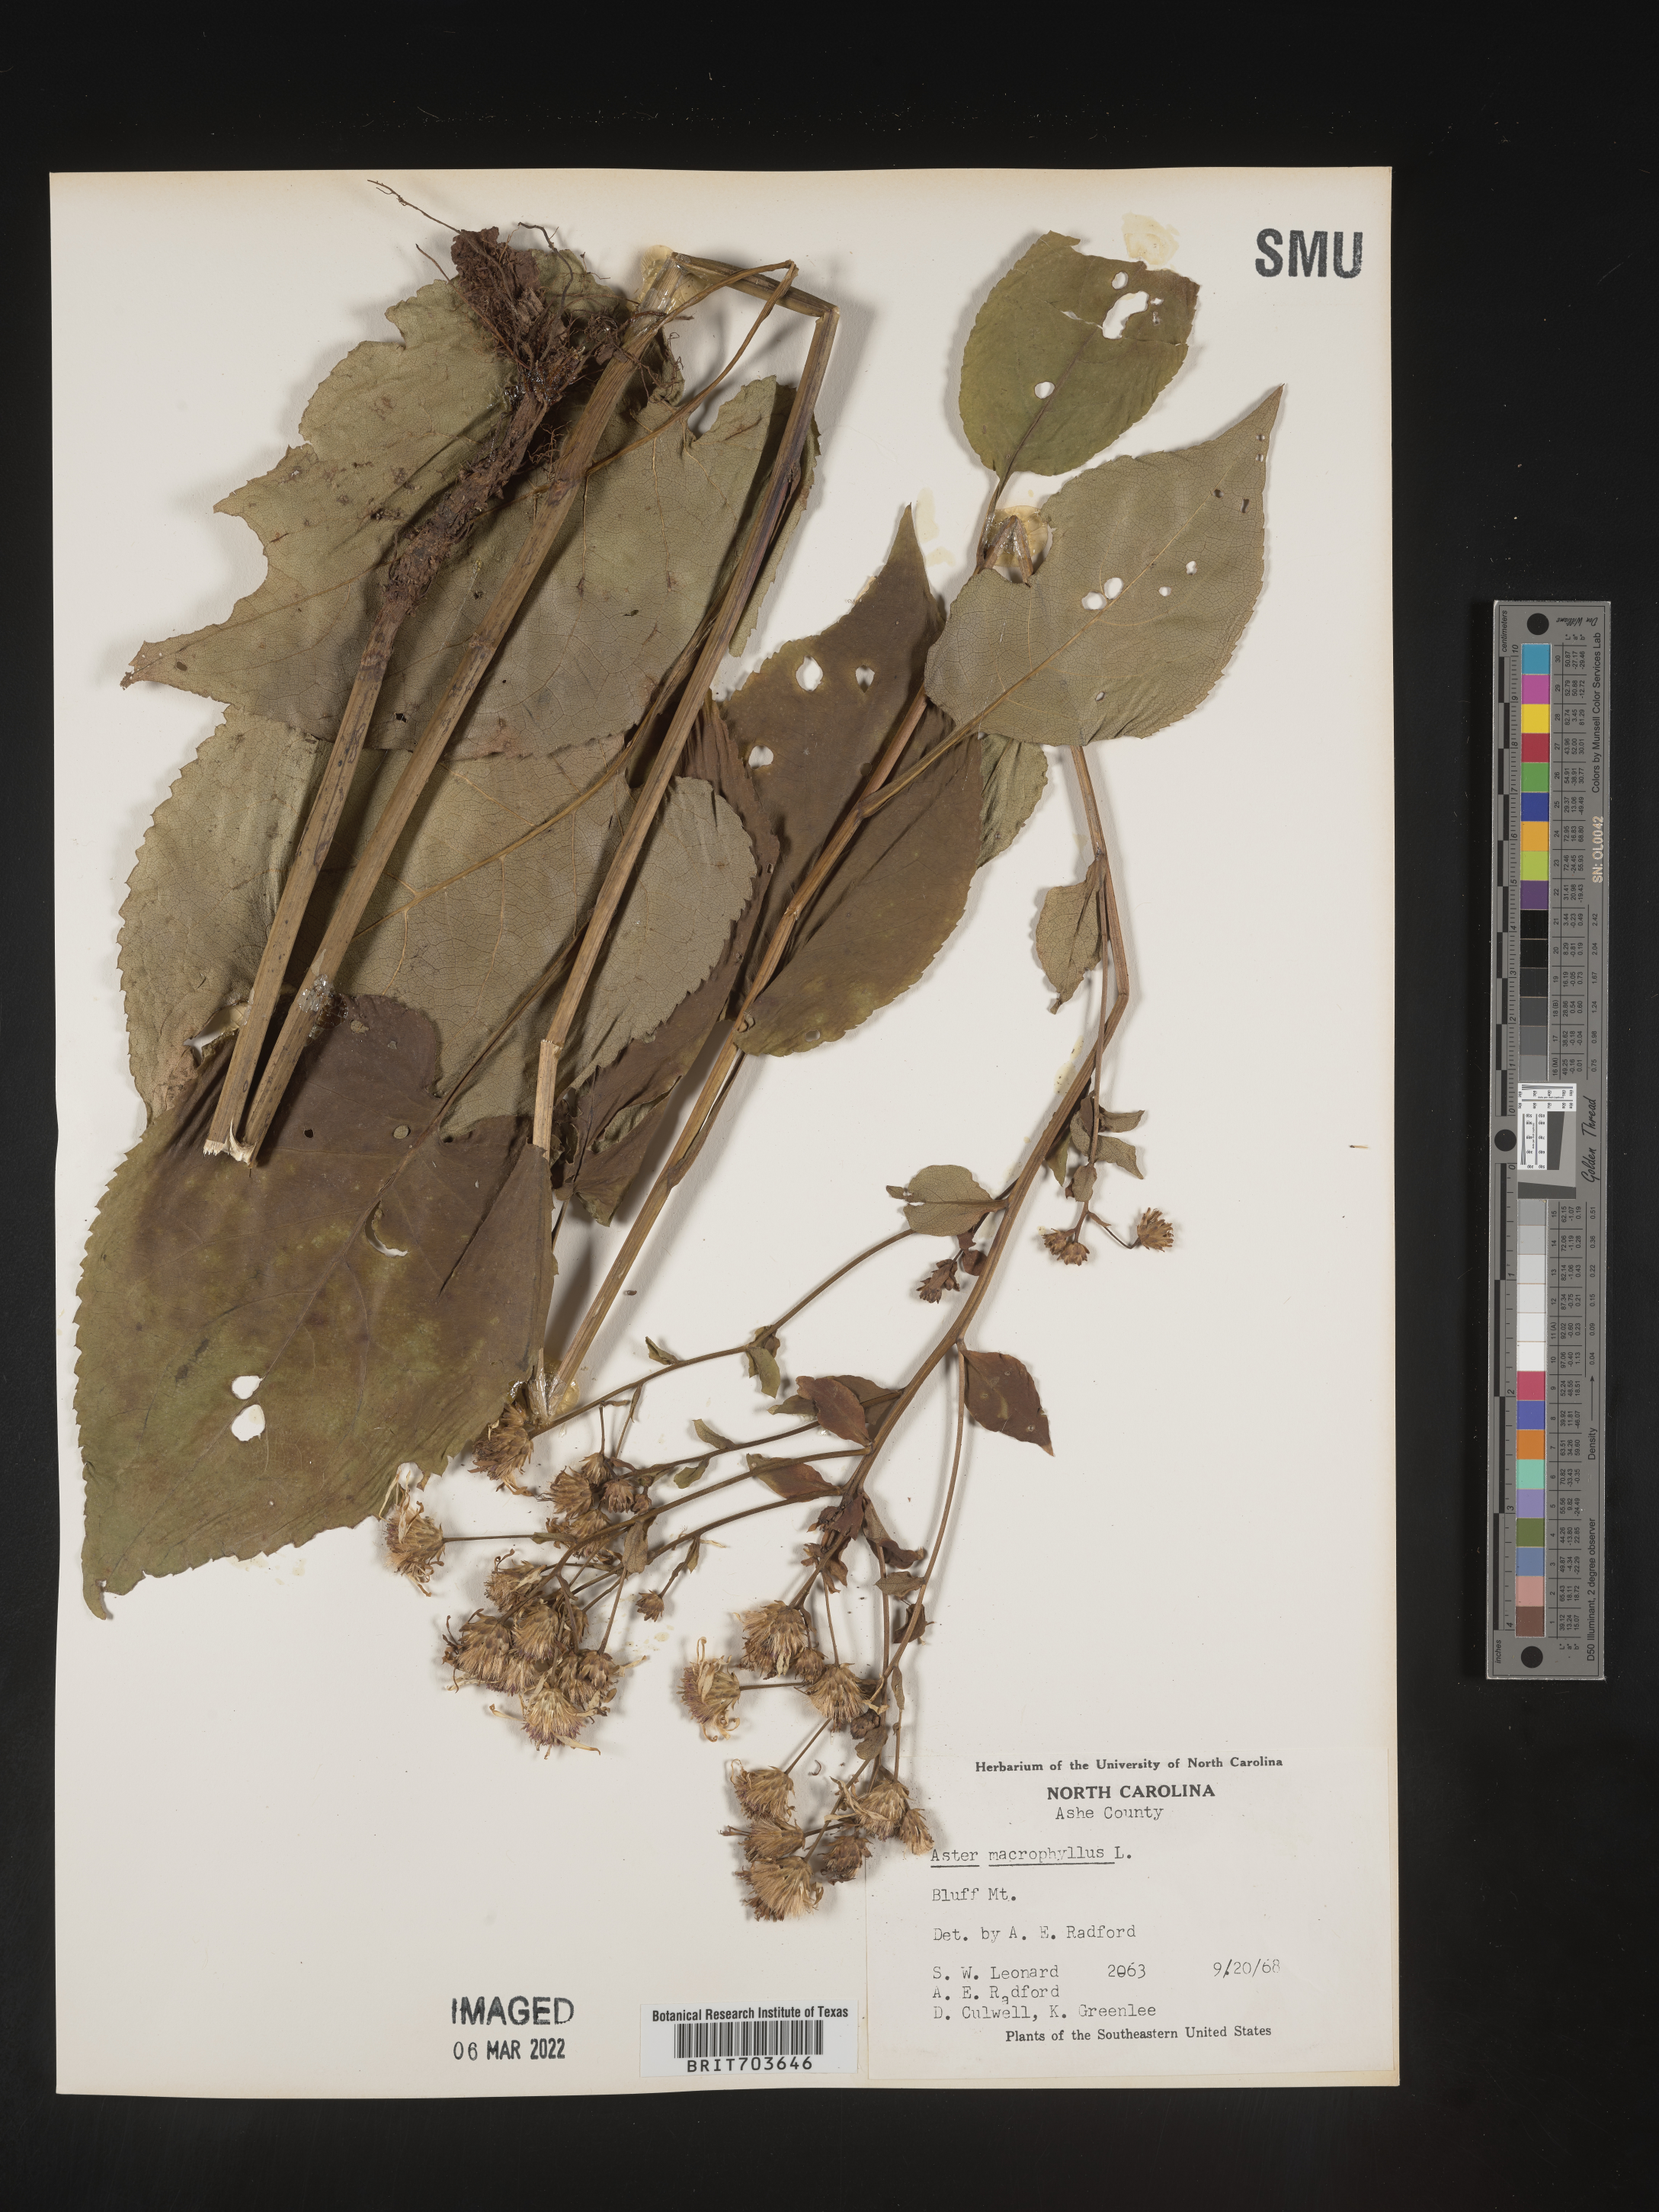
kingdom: Plantae
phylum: Tracheophyta
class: Magnoliopsida
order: Asterales
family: Asteraceae
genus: Eurybia
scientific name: Eurybia macrophylla
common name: Big-leaved aster
